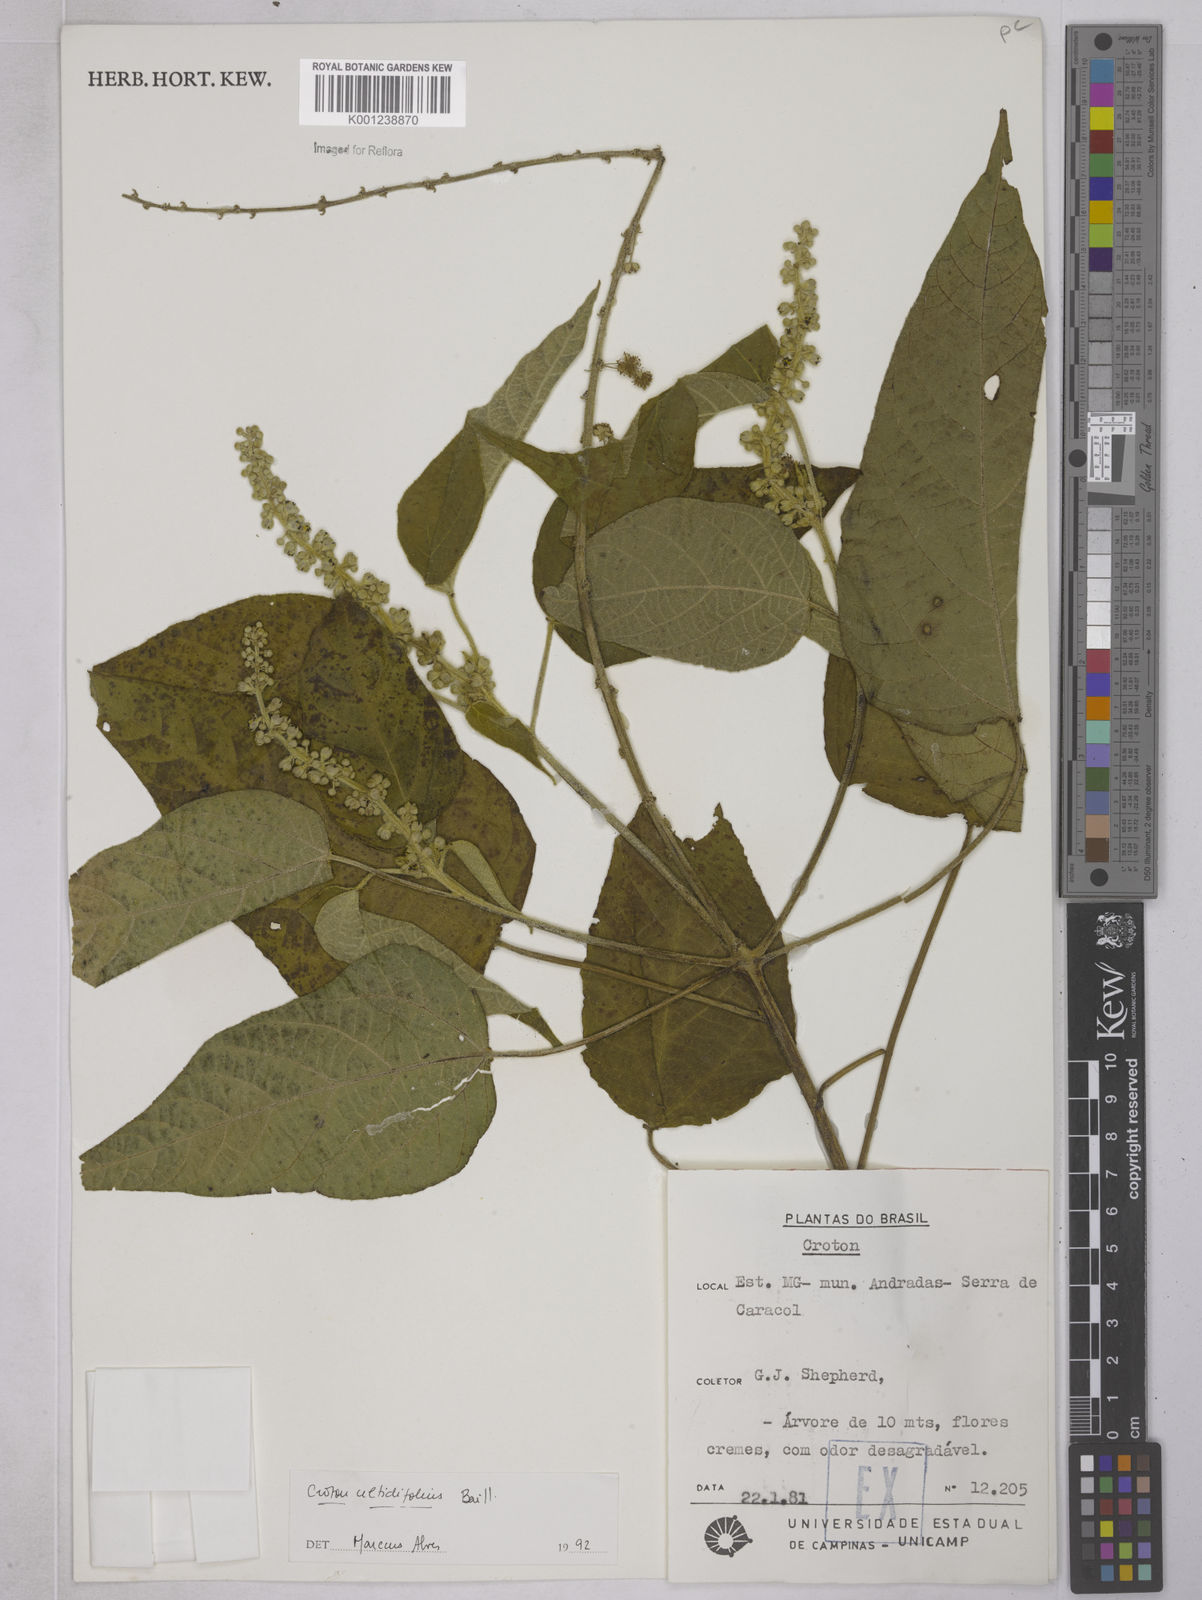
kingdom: Plantae
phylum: Tracheophyta
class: Magnoliopsida
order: Malpighiales
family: Euphorbiaceae
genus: Croton
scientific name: Croton celtidifolius
